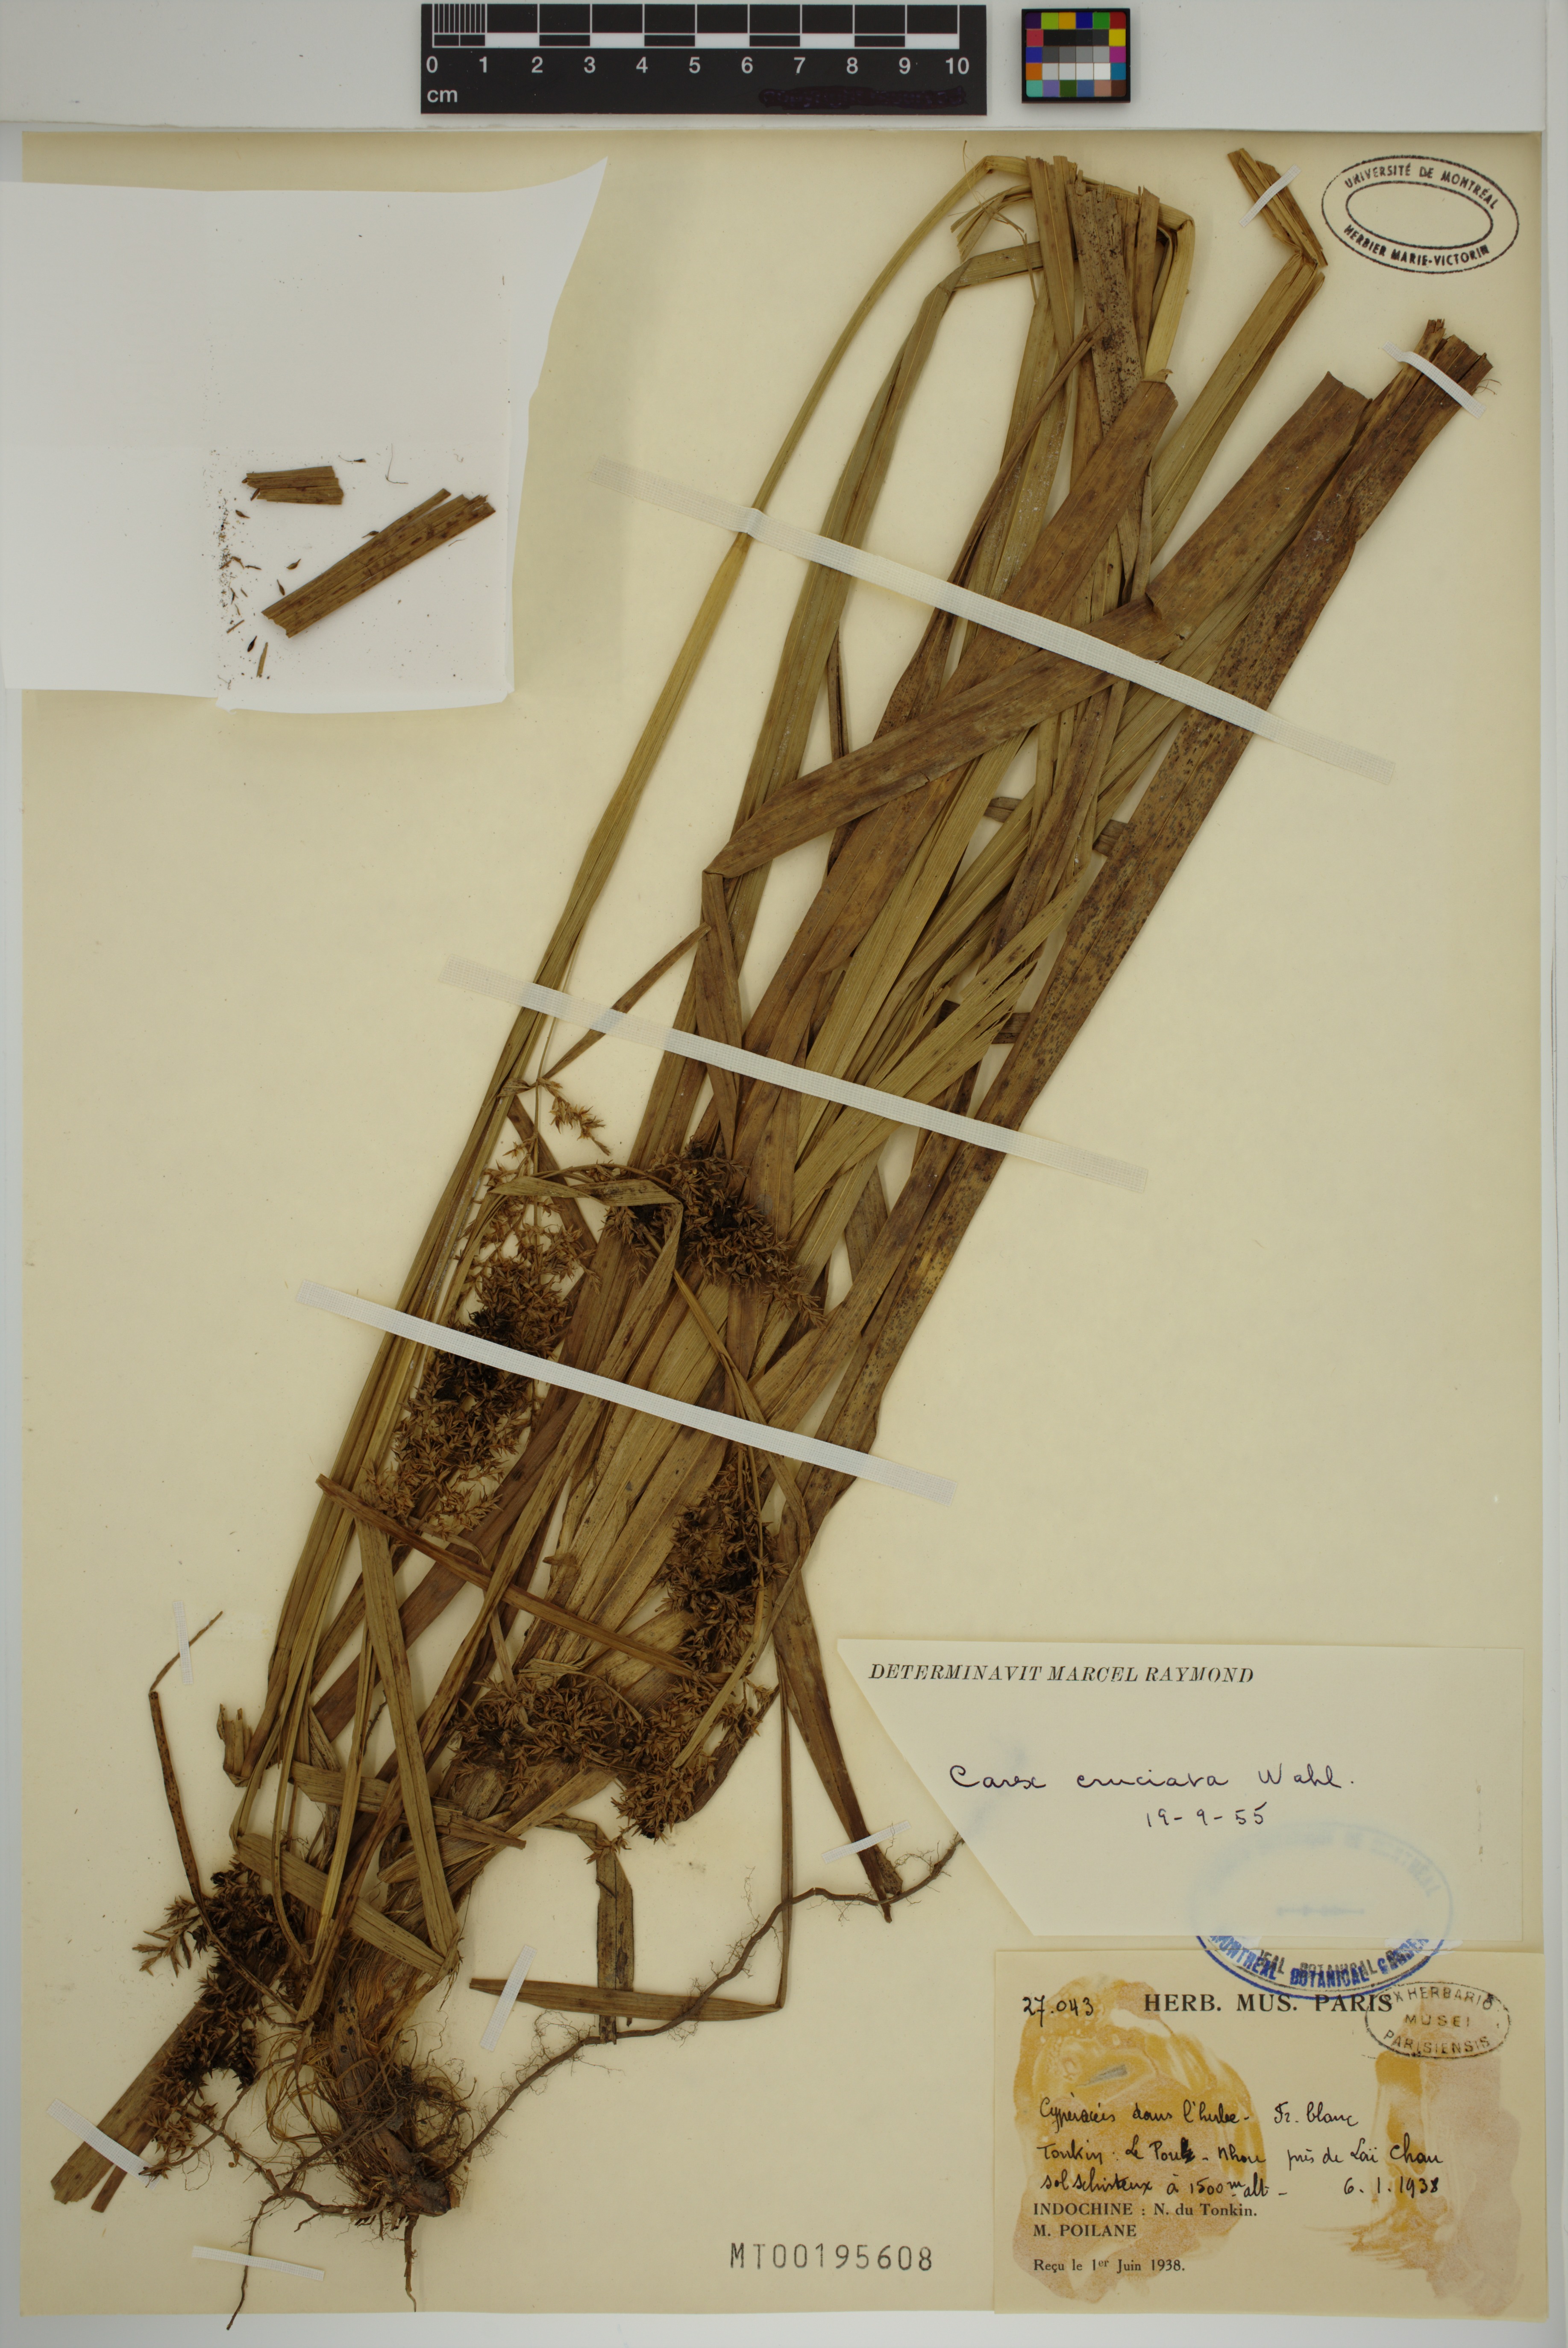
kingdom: Plantae
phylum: Tracheophyta
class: Liliopsida
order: Poales
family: Cyperaceae
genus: Carex
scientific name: Carex cruciata
